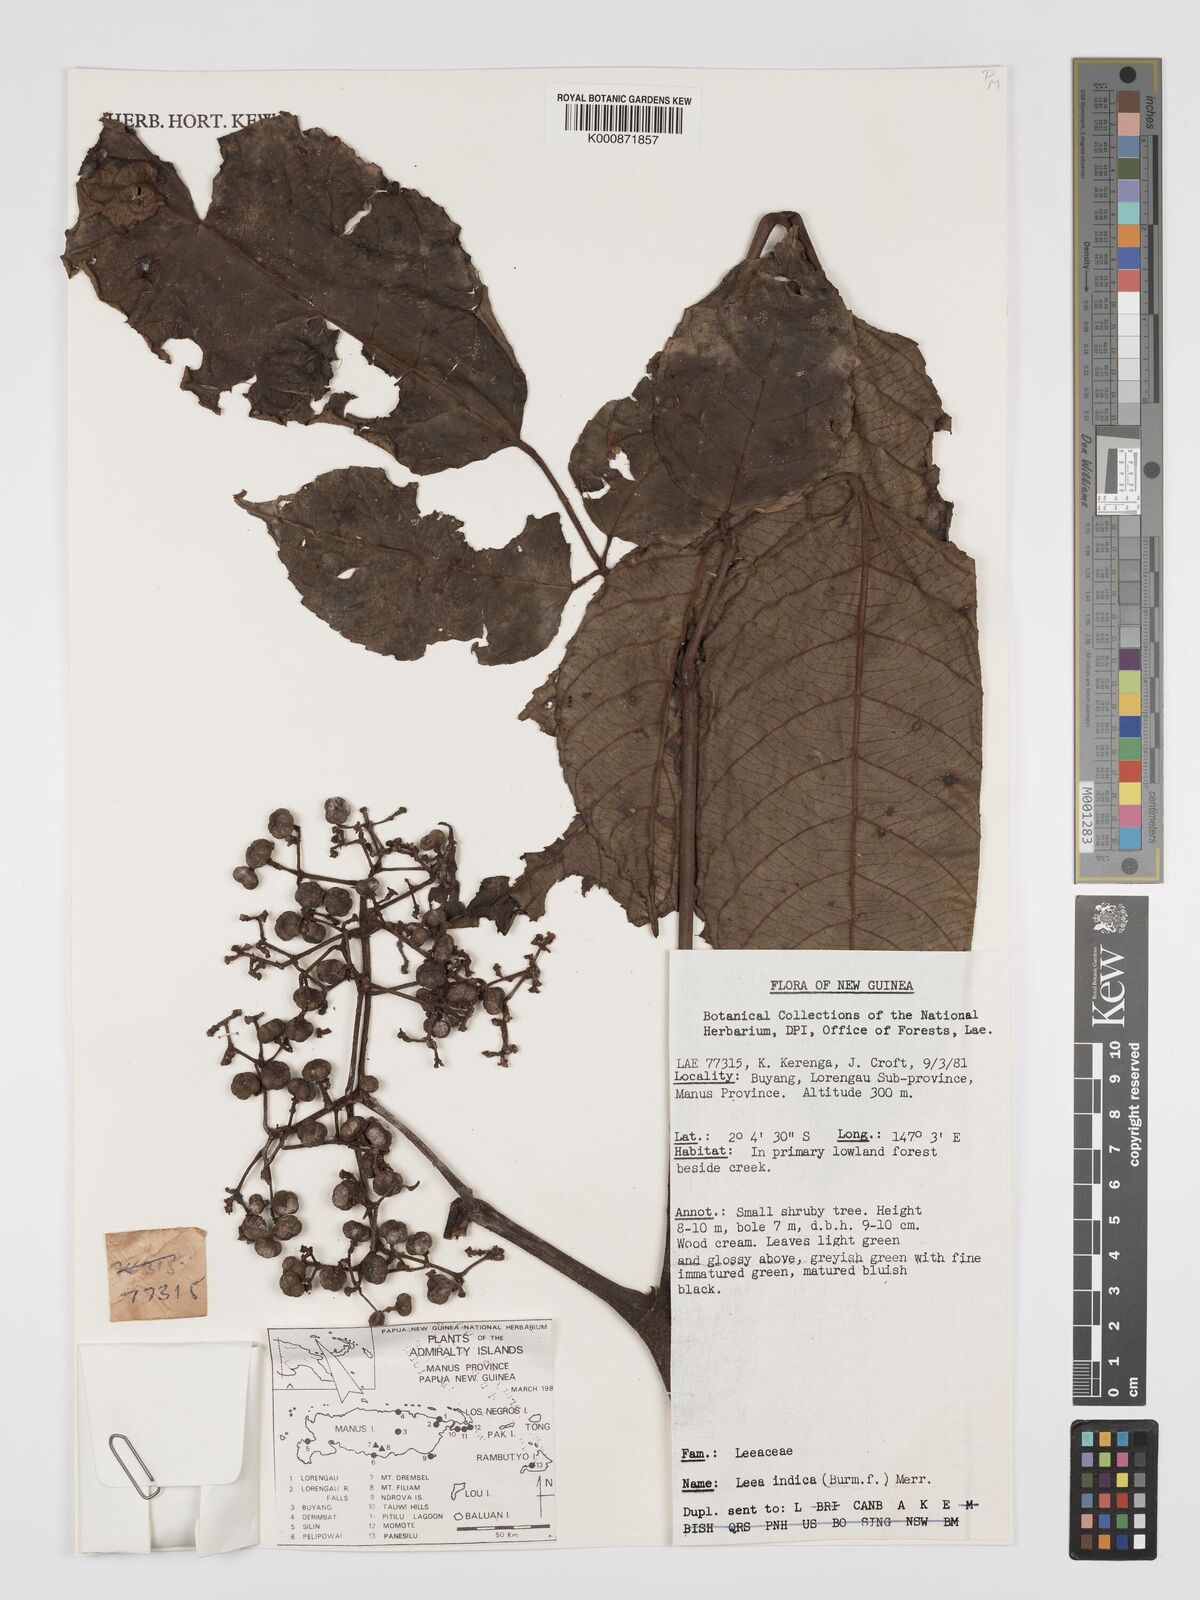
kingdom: Plantae
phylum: Tracheophyta
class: Magnoliopsida
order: Vitales
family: Vitaceae
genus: Leea
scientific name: Leea indica
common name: Bandicoot-berry
